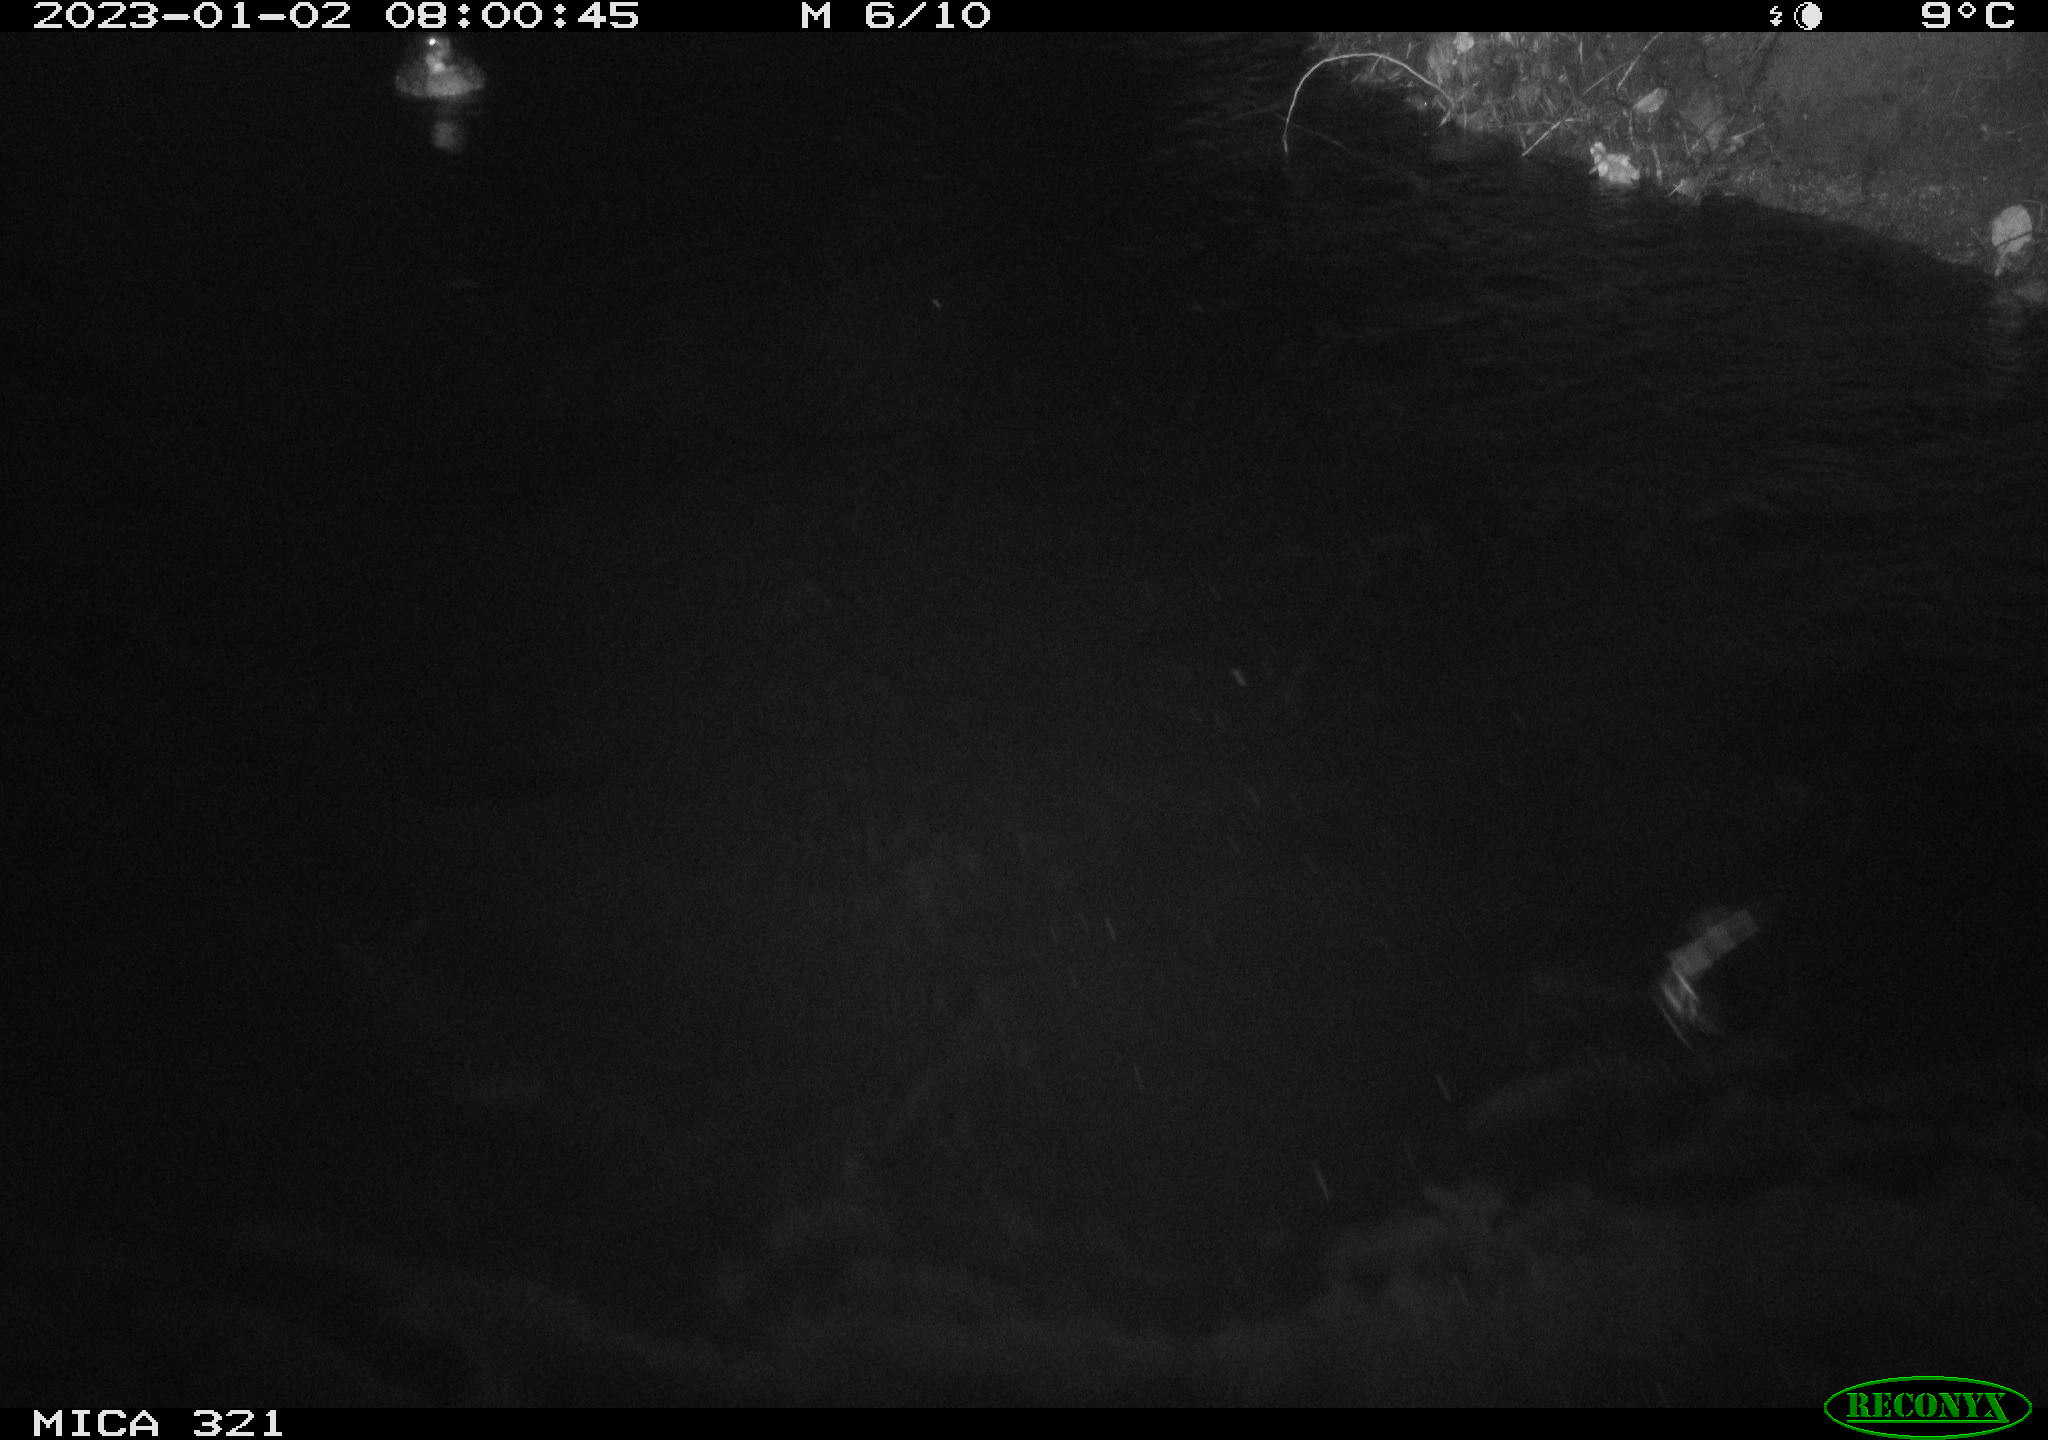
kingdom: Animalia
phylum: Chordata
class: Aves
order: Anseriformes
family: Anatidae
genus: Anas
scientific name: Anas
